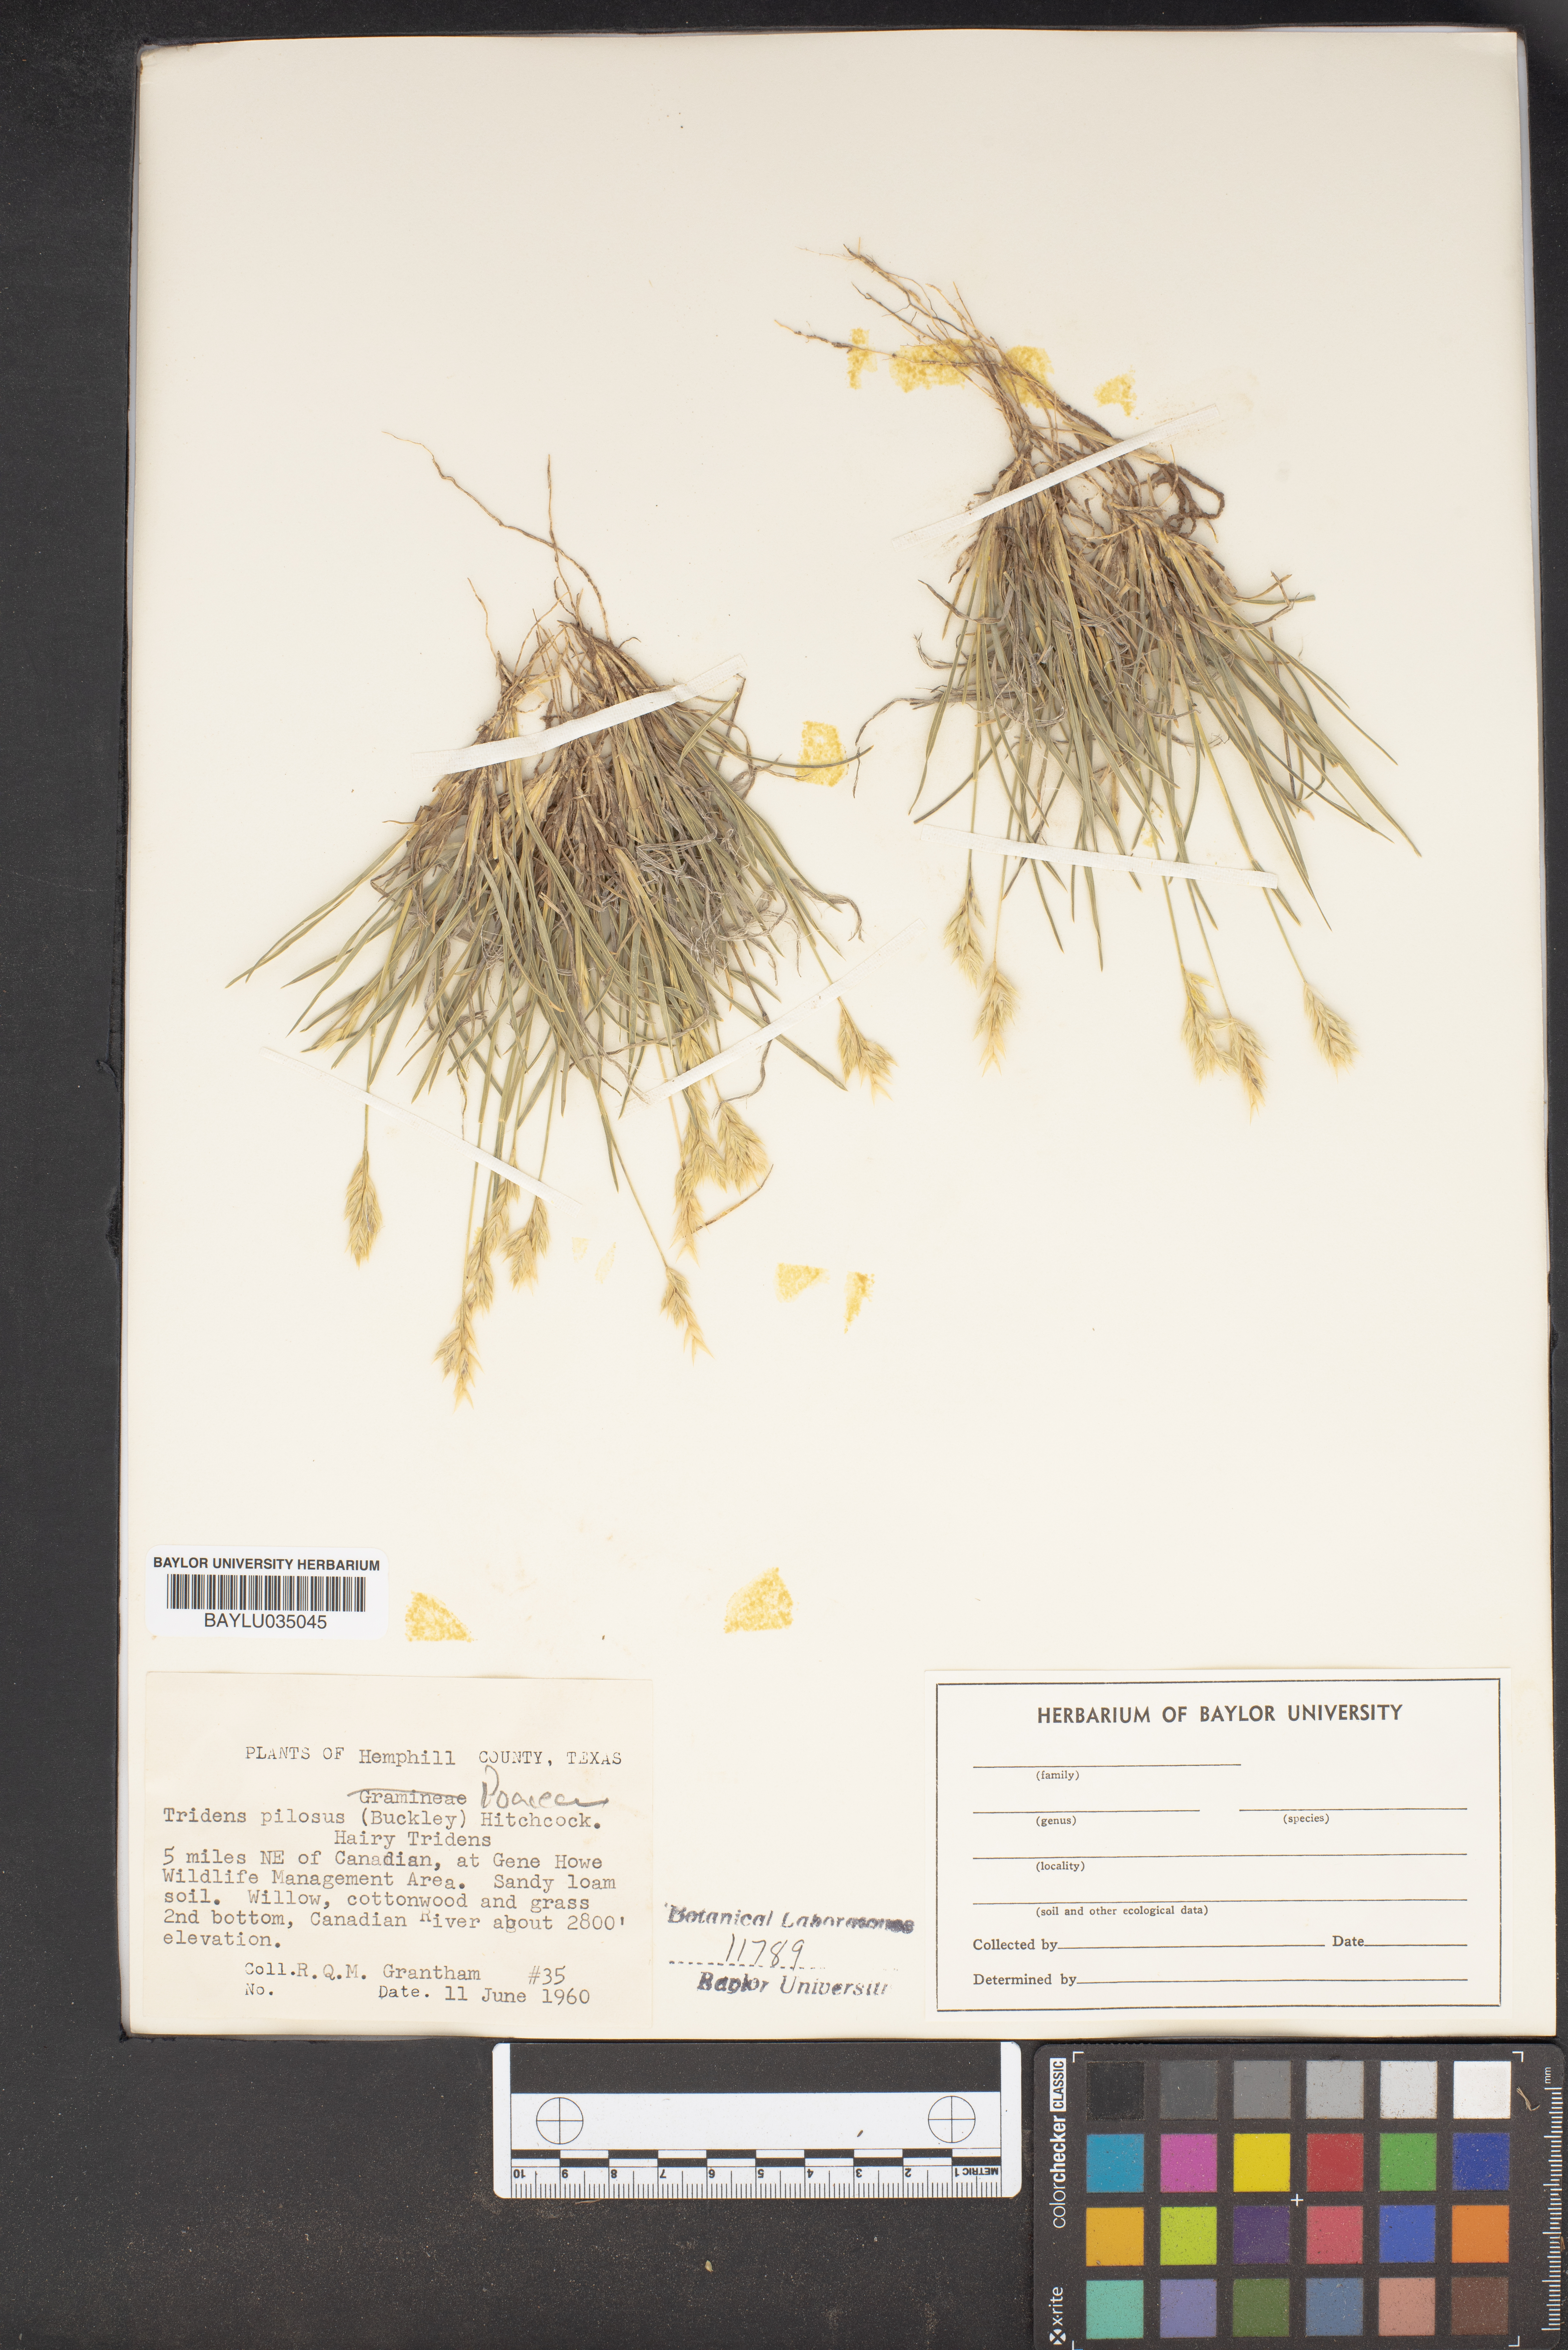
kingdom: Plantae
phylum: Tracheophyta
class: Liliopsida
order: Poales
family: Poaceae
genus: Tridentopsis
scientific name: Tridentopsis mutica
